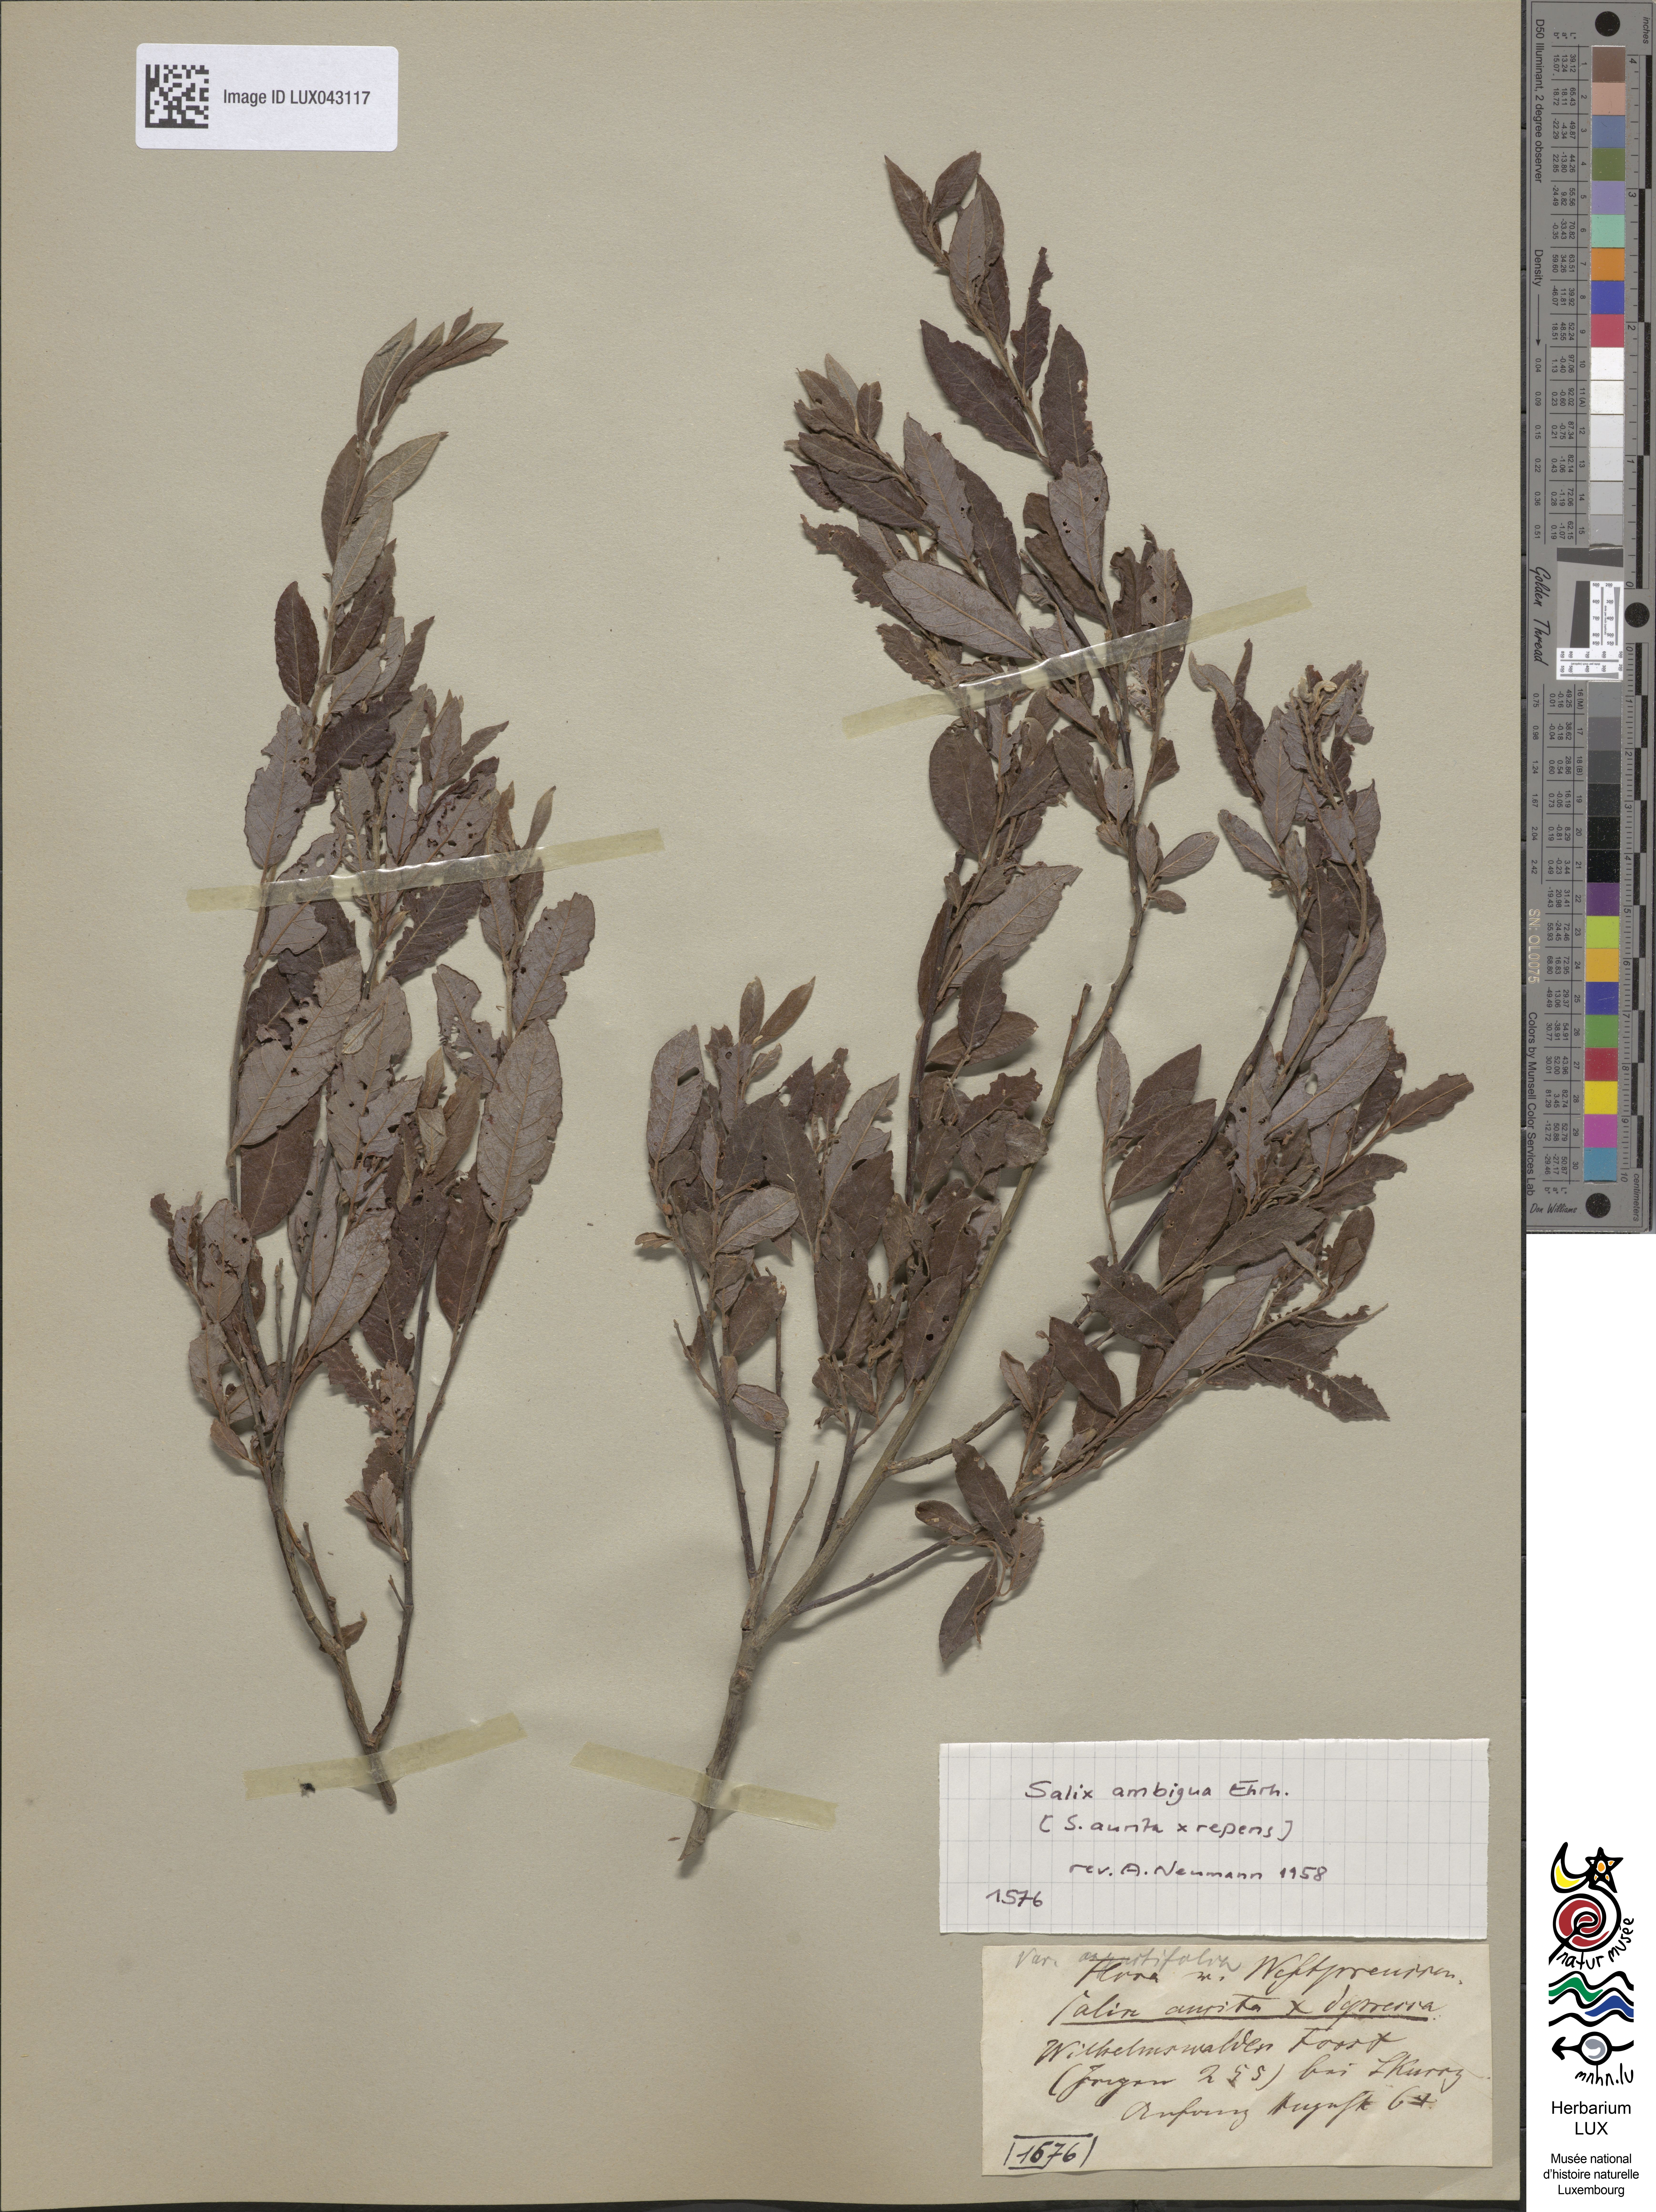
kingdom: Plantae
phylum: Tracheophyta
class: Magnoliopsida
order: Malpighiales
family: Salicaceae
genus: Salix
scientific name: Salix
